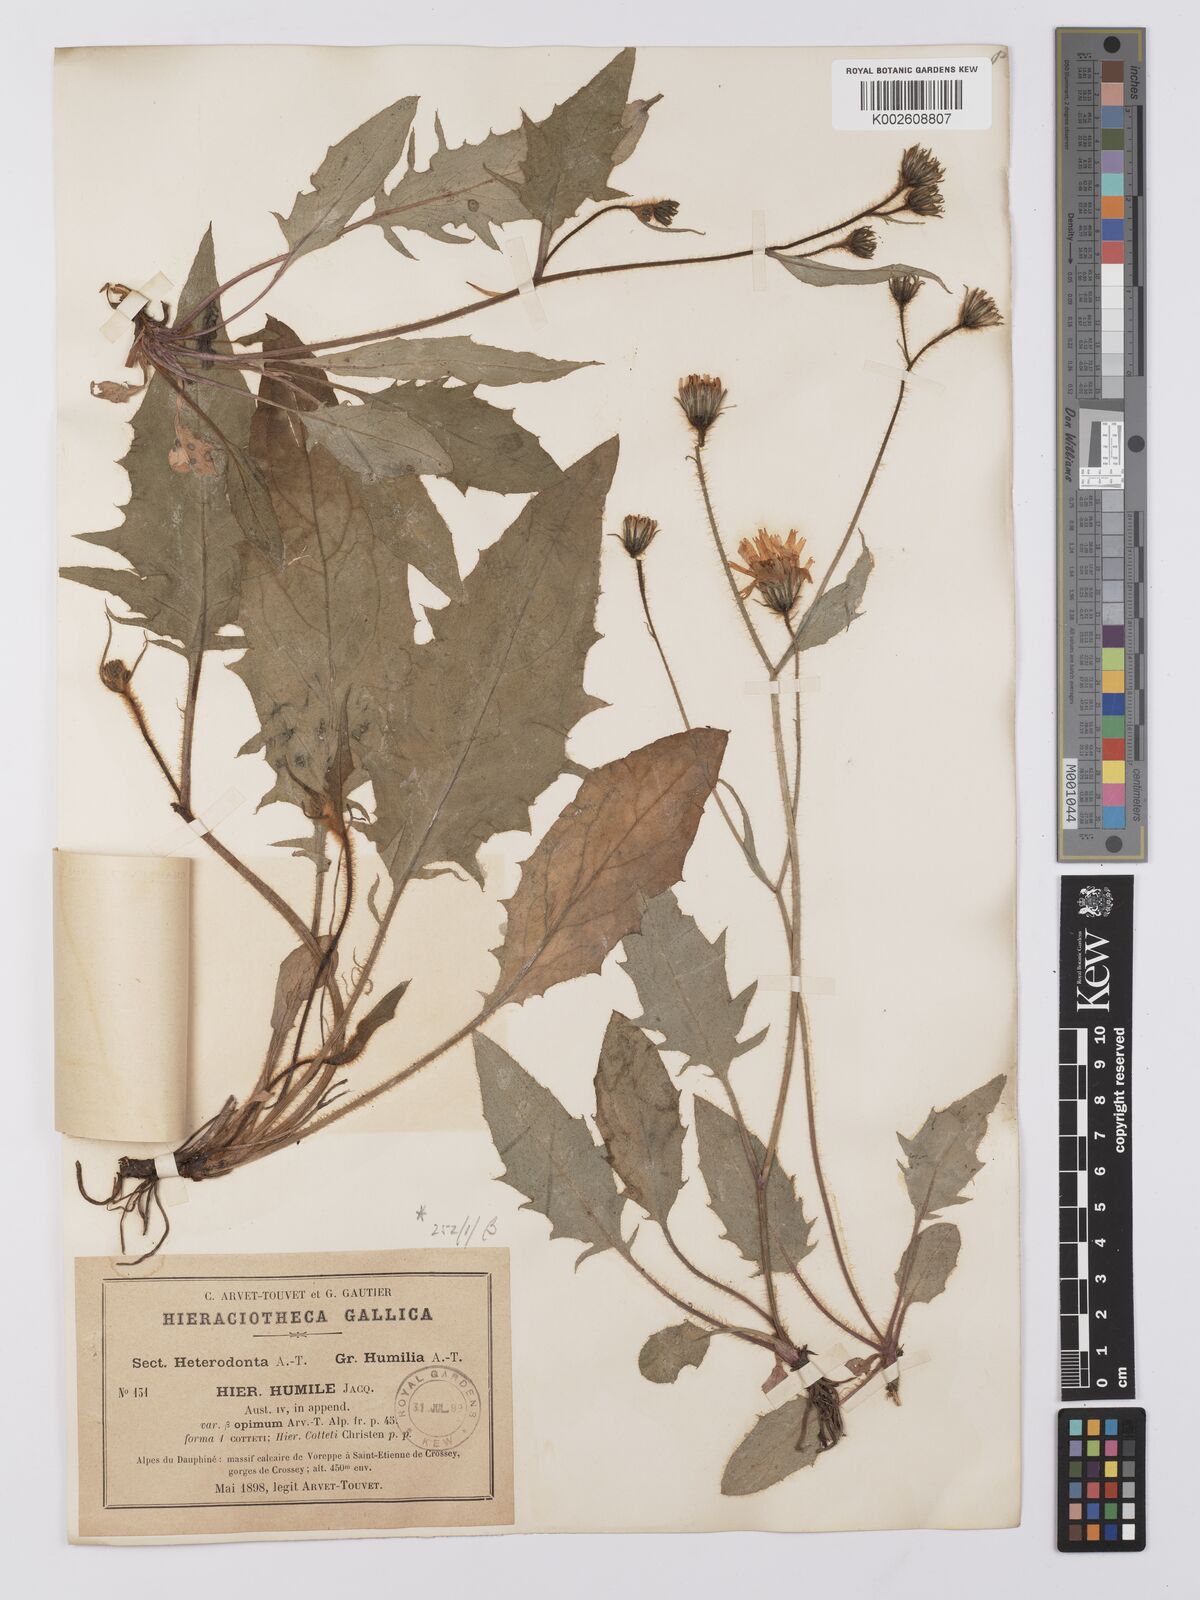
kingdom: Plantae
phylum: Tracheophyta
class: Magnoliopsida
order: Asterales
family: Asteraceae
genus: Hieracium
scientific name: Hieracium humile
